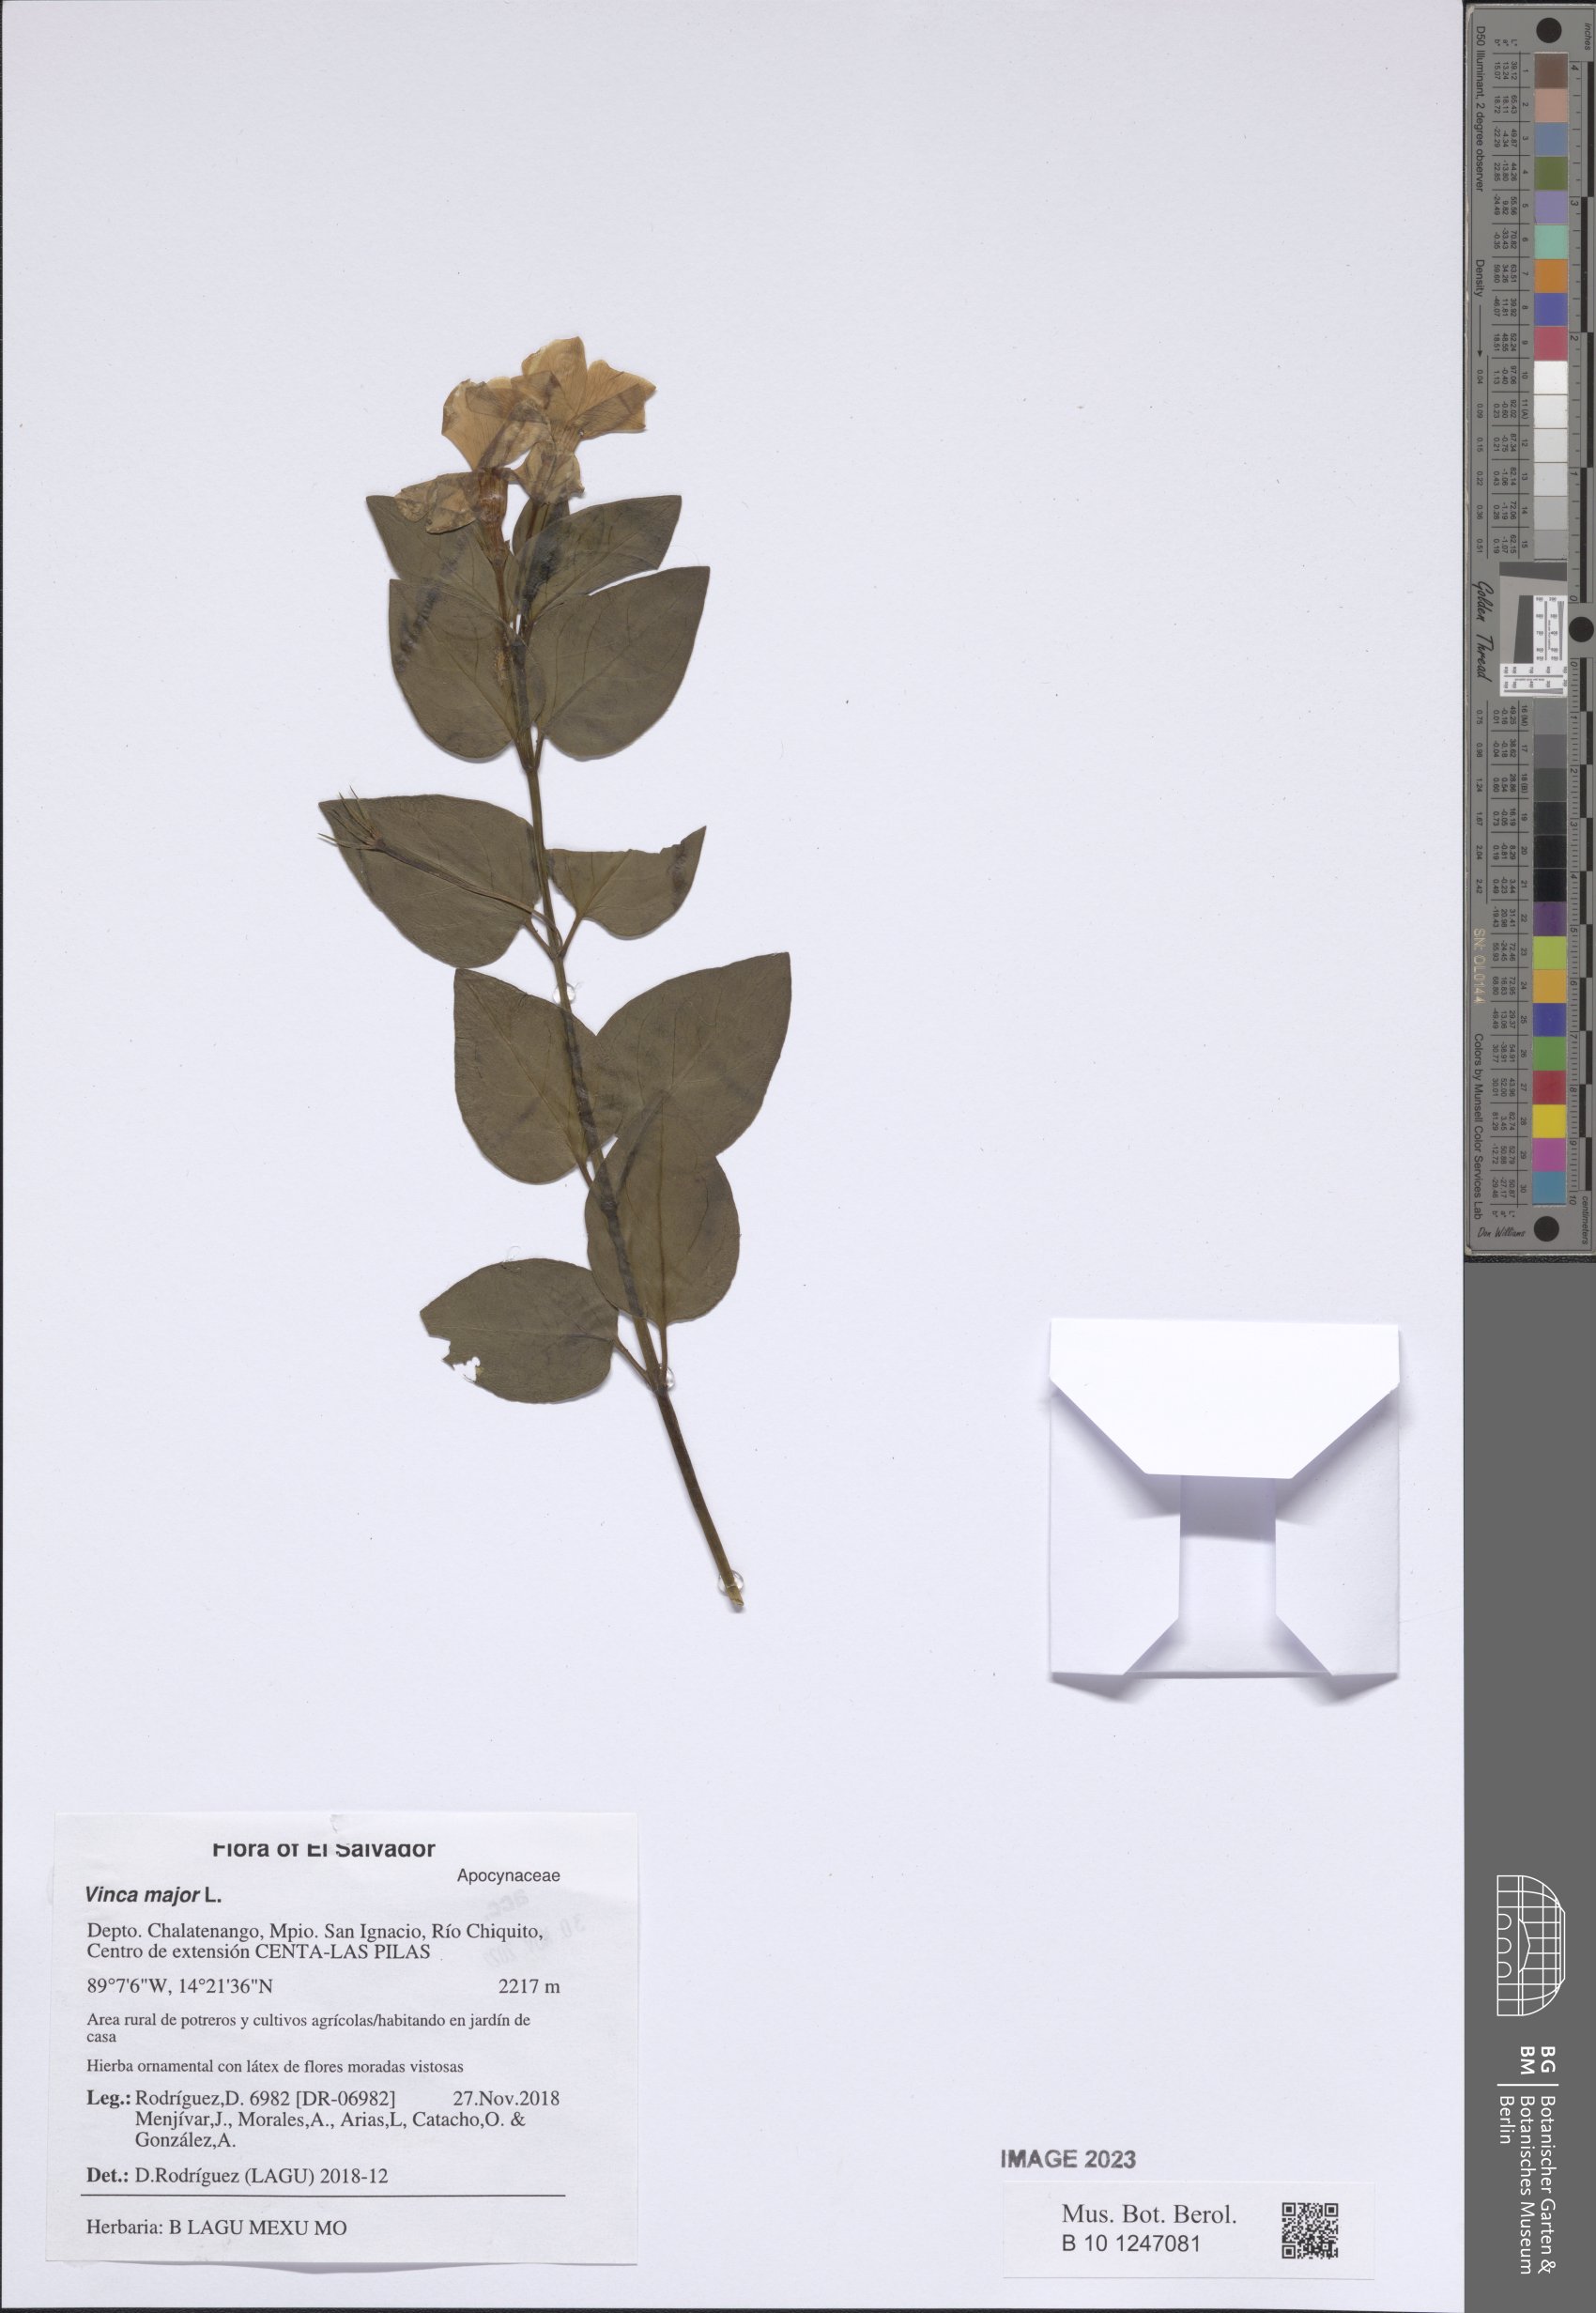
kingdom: Plantae
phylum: Tracheophyta
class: Magnoliopsida
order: Gentianales
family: Apocynaceae
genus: Vinca
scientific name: Vinca major
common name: Greater periwinkle
